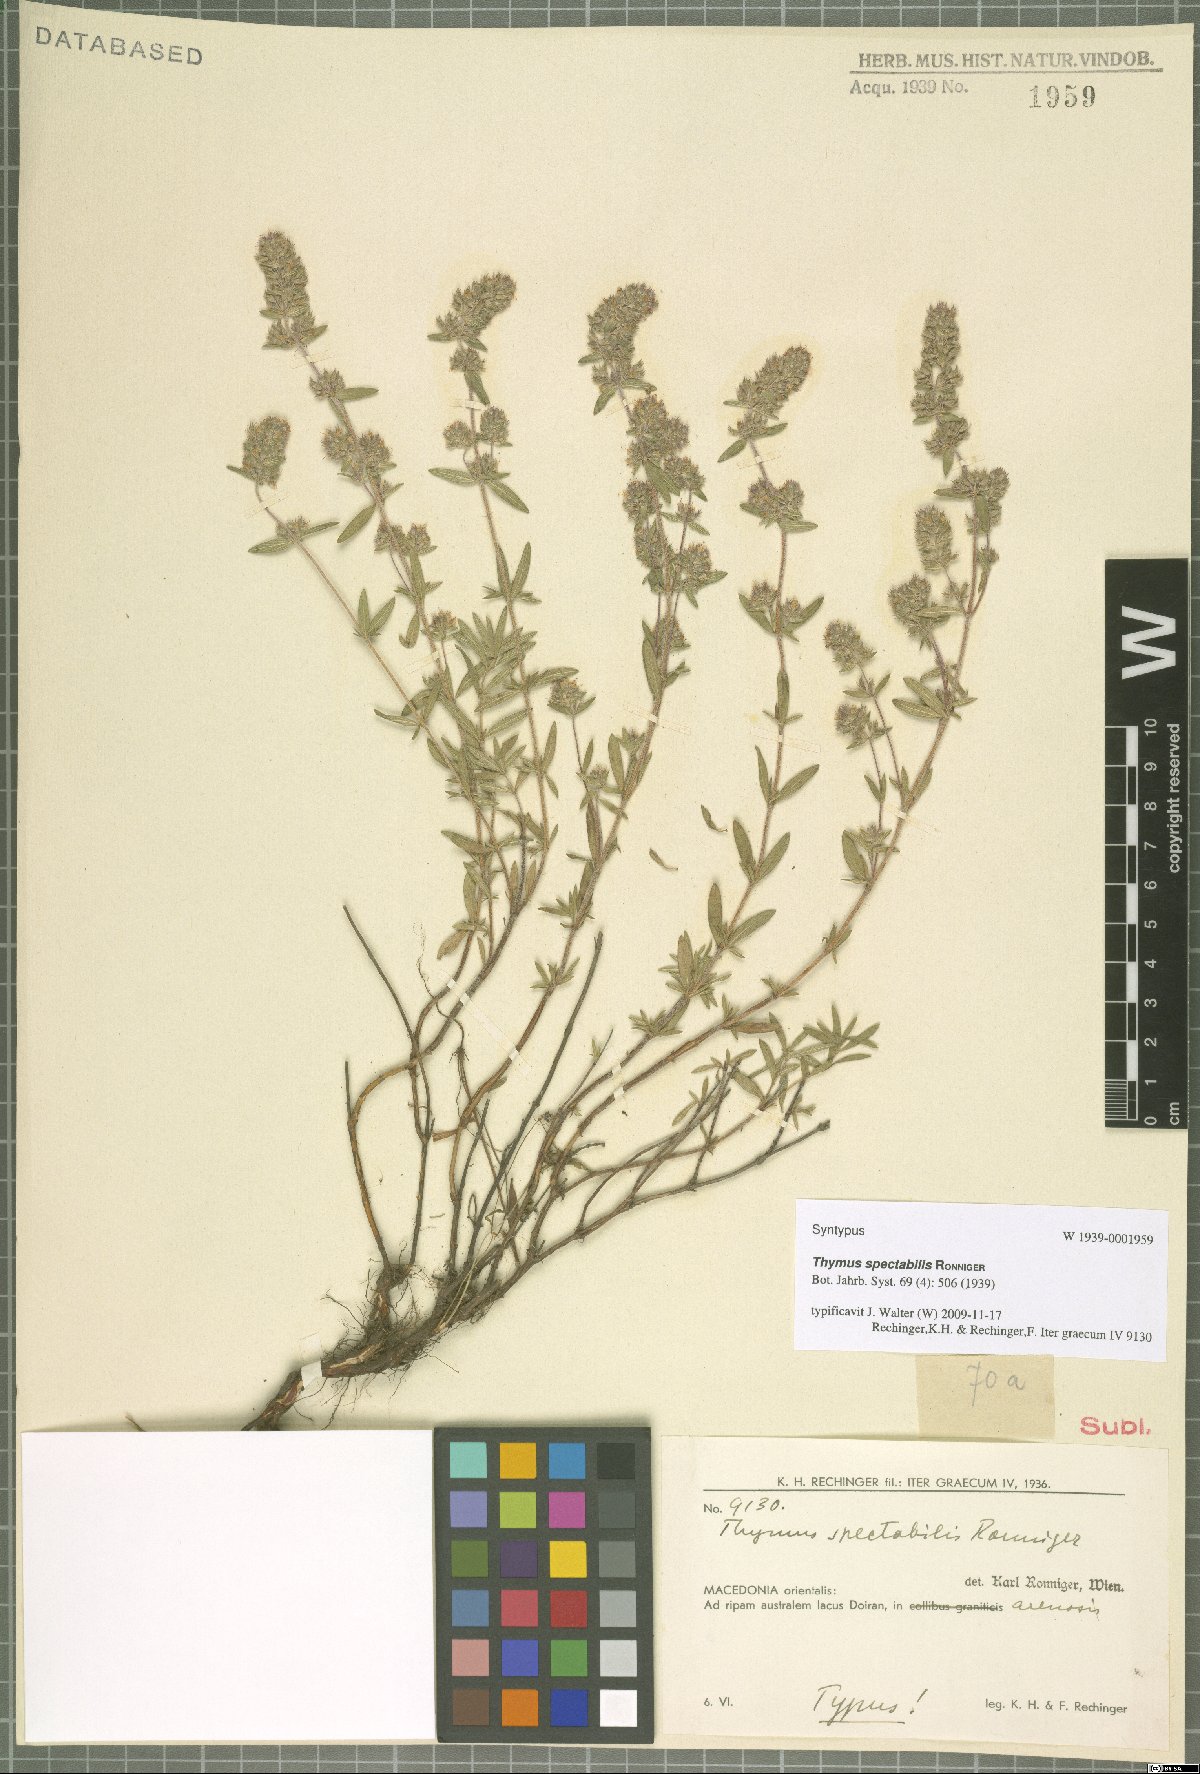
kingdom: Plantae
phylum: Tracheophyta
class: Magnoliopsida
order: Lamiales
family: Lamiaceae
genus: Thymus
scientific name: Thymus sibthorpii
